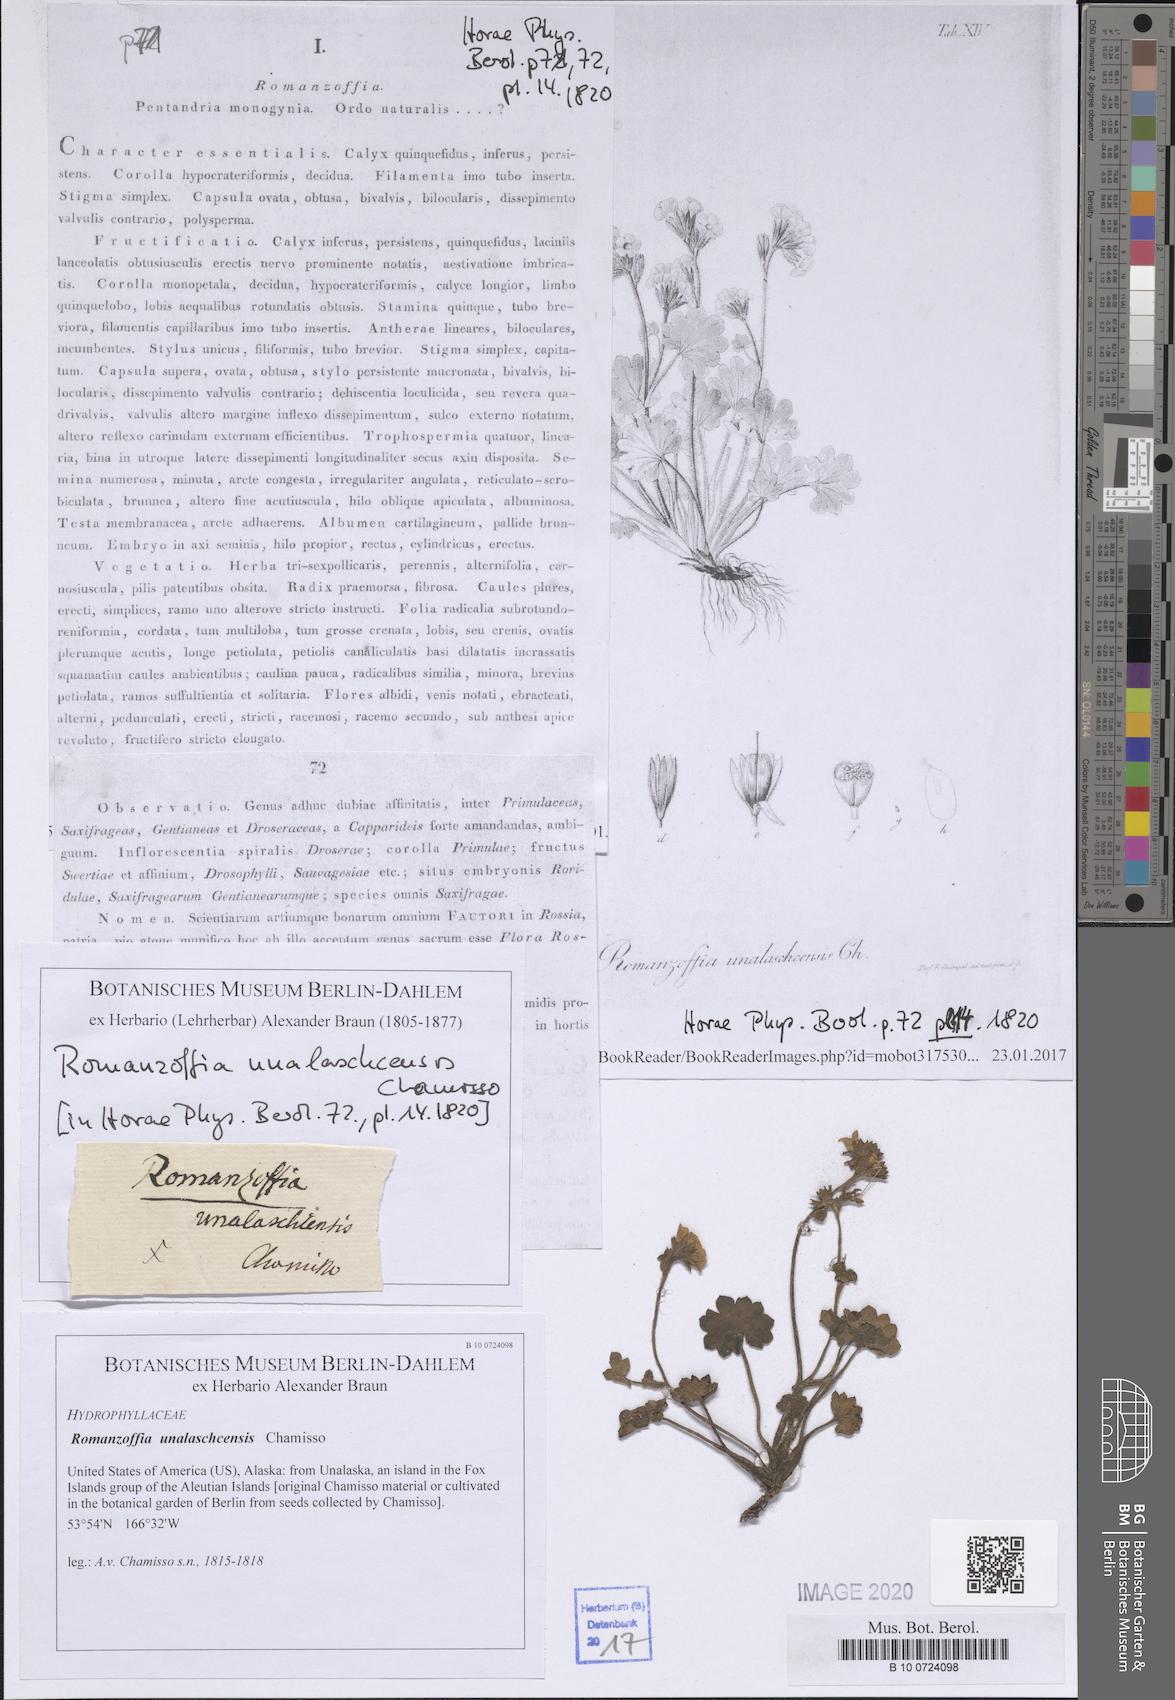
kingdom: Plantae
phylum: Tracheophyta
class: Magnoliopsida
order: Boraginales
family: Hydrophyllaceae
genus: Romanzoffia
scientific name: Romanzoffia unalaschcensis
